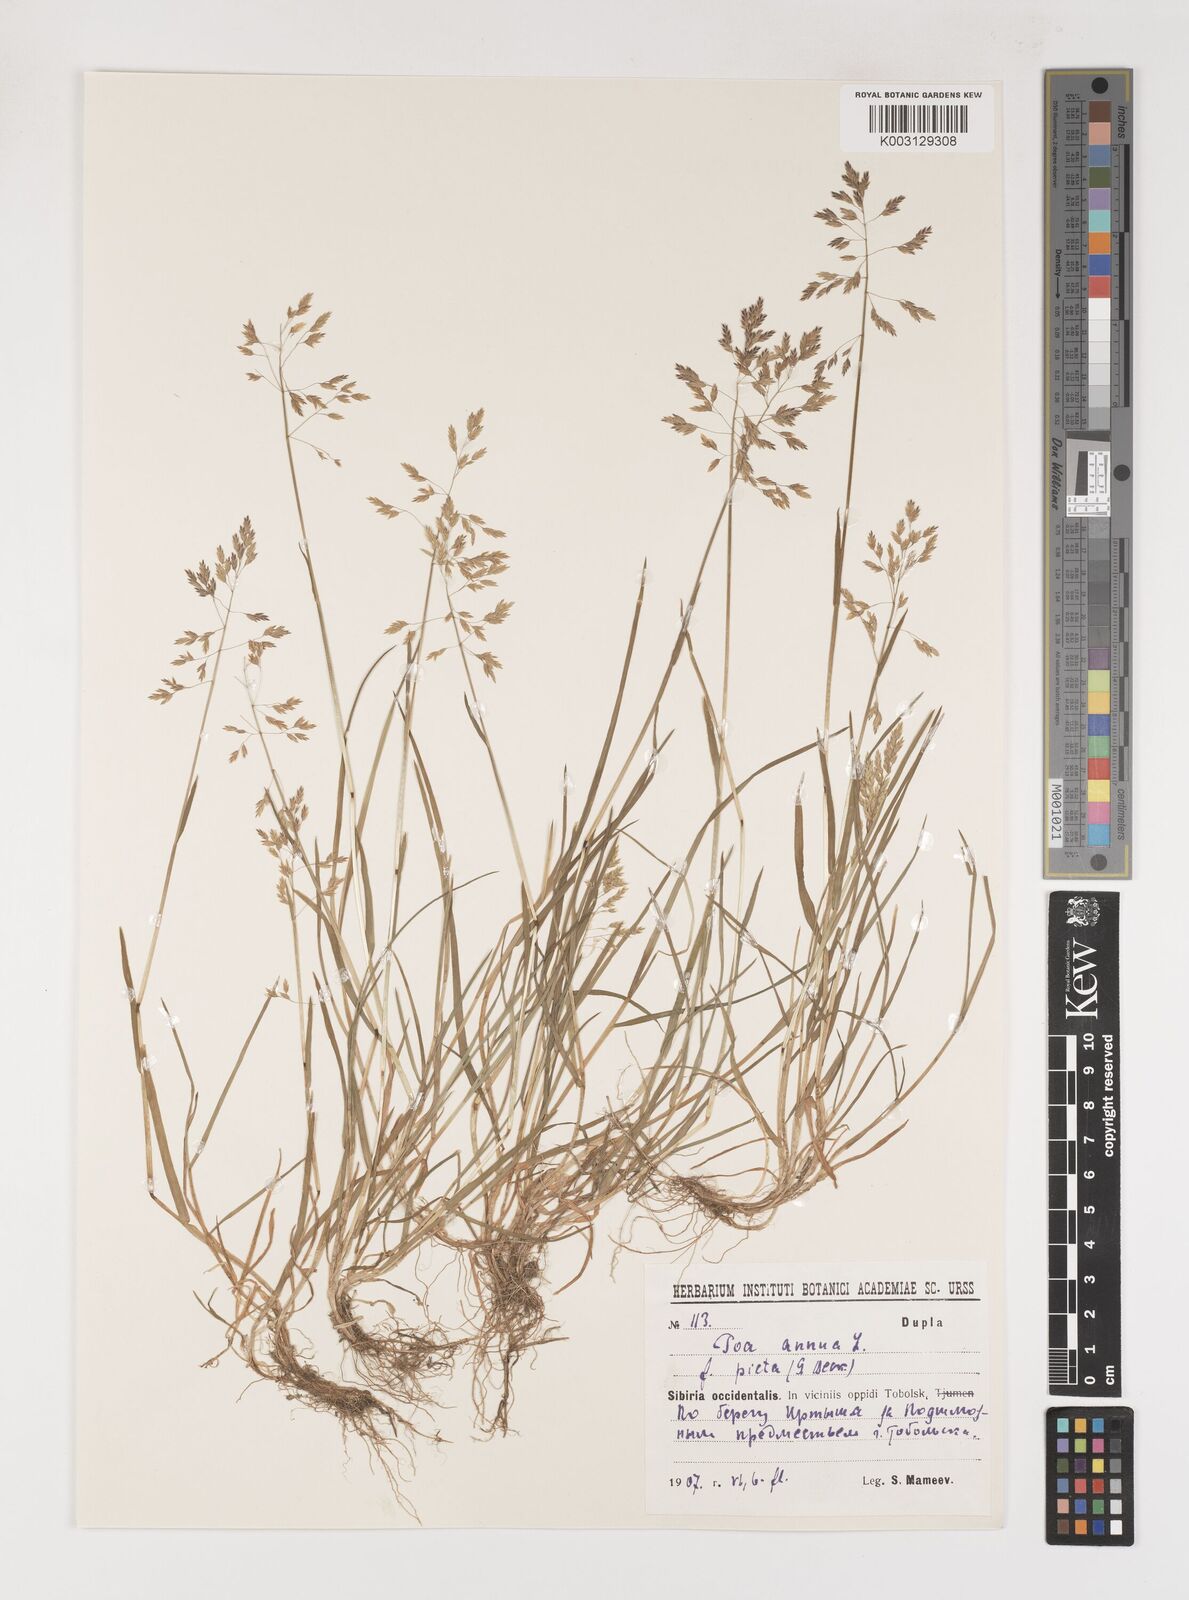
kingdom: Plantae
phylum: Tracheophyta
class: Liliopsida
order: Poales
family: Poaceae
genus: Poa
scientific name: Poa annua
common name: Annual bluegrass
